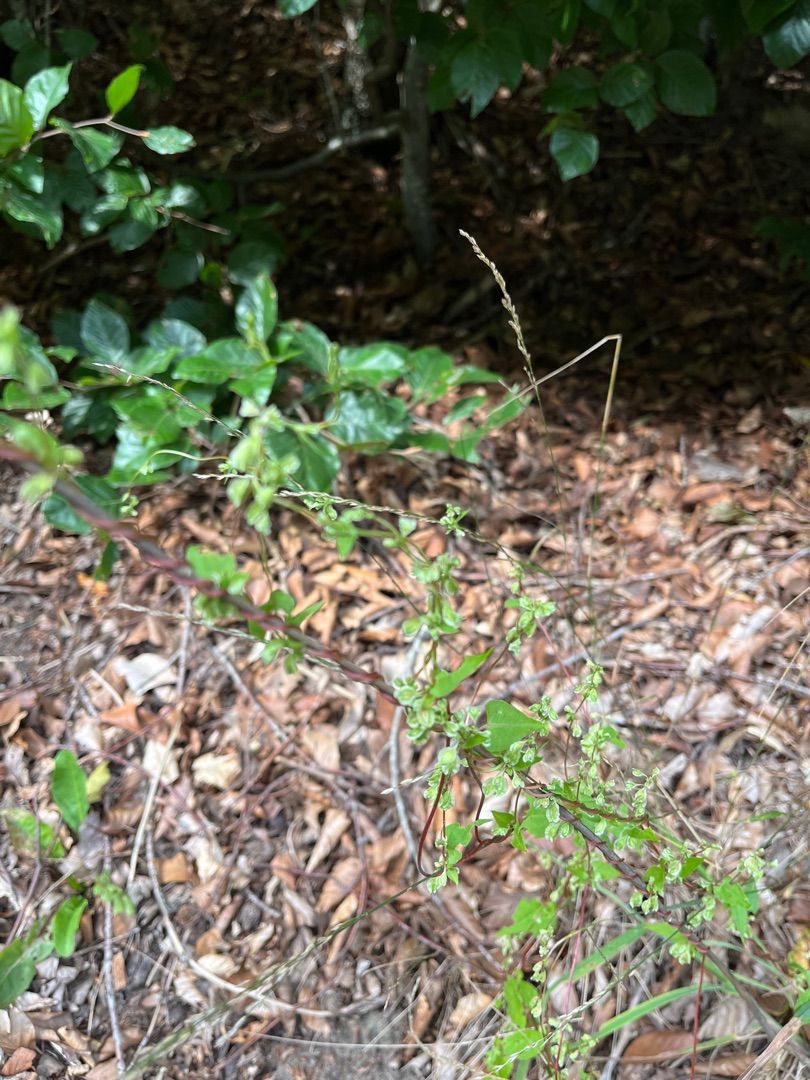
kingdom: Plantae
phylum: Tracheophyta
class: Magnoliopsida
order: Caryophyllales
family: Polygonaceae
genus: Fallopia
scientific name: Fallopia dumetorum
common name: Vinge-pileurt
